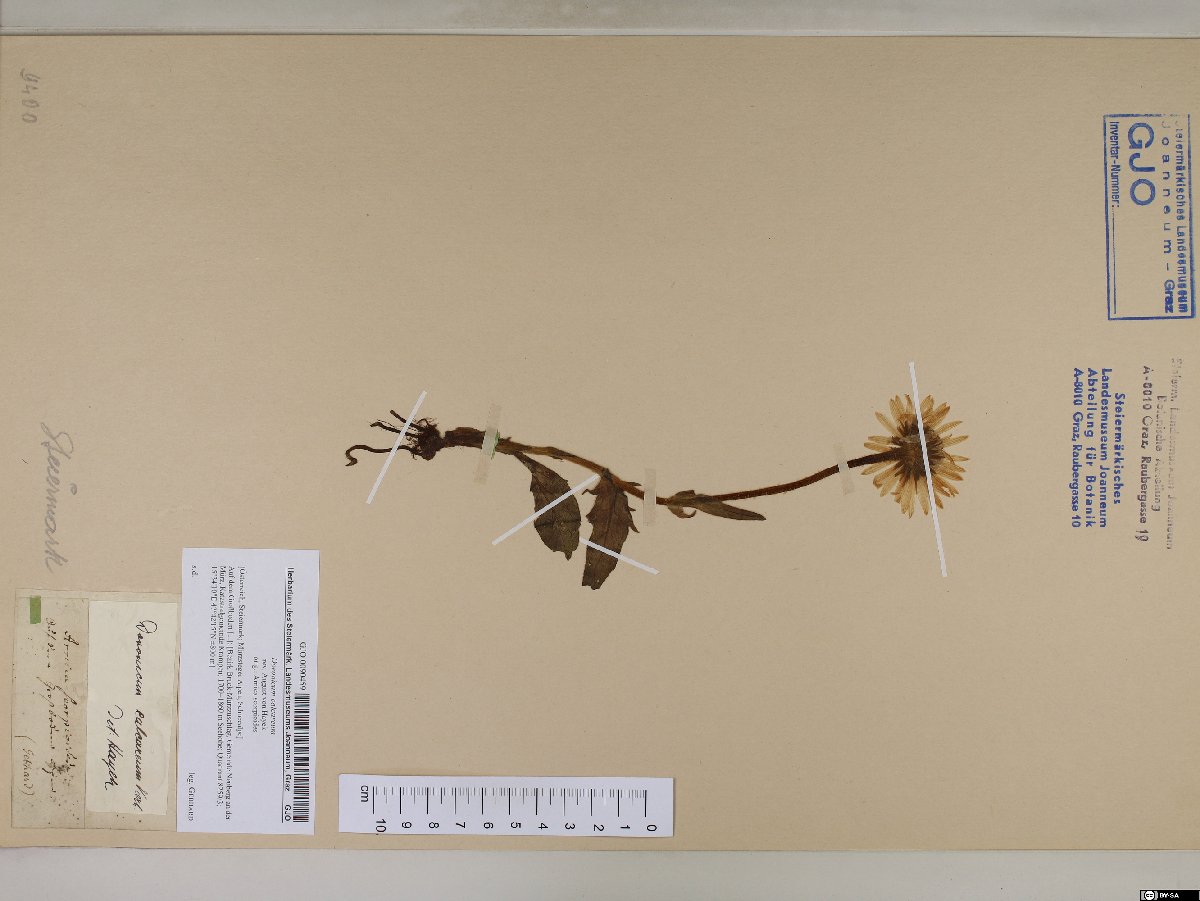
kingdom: Plantae
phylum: Tracheophyta
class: Magnoliopsida
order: Asterales
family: Asteraceae
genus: Doronicum
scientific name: Doronicum glaciale
